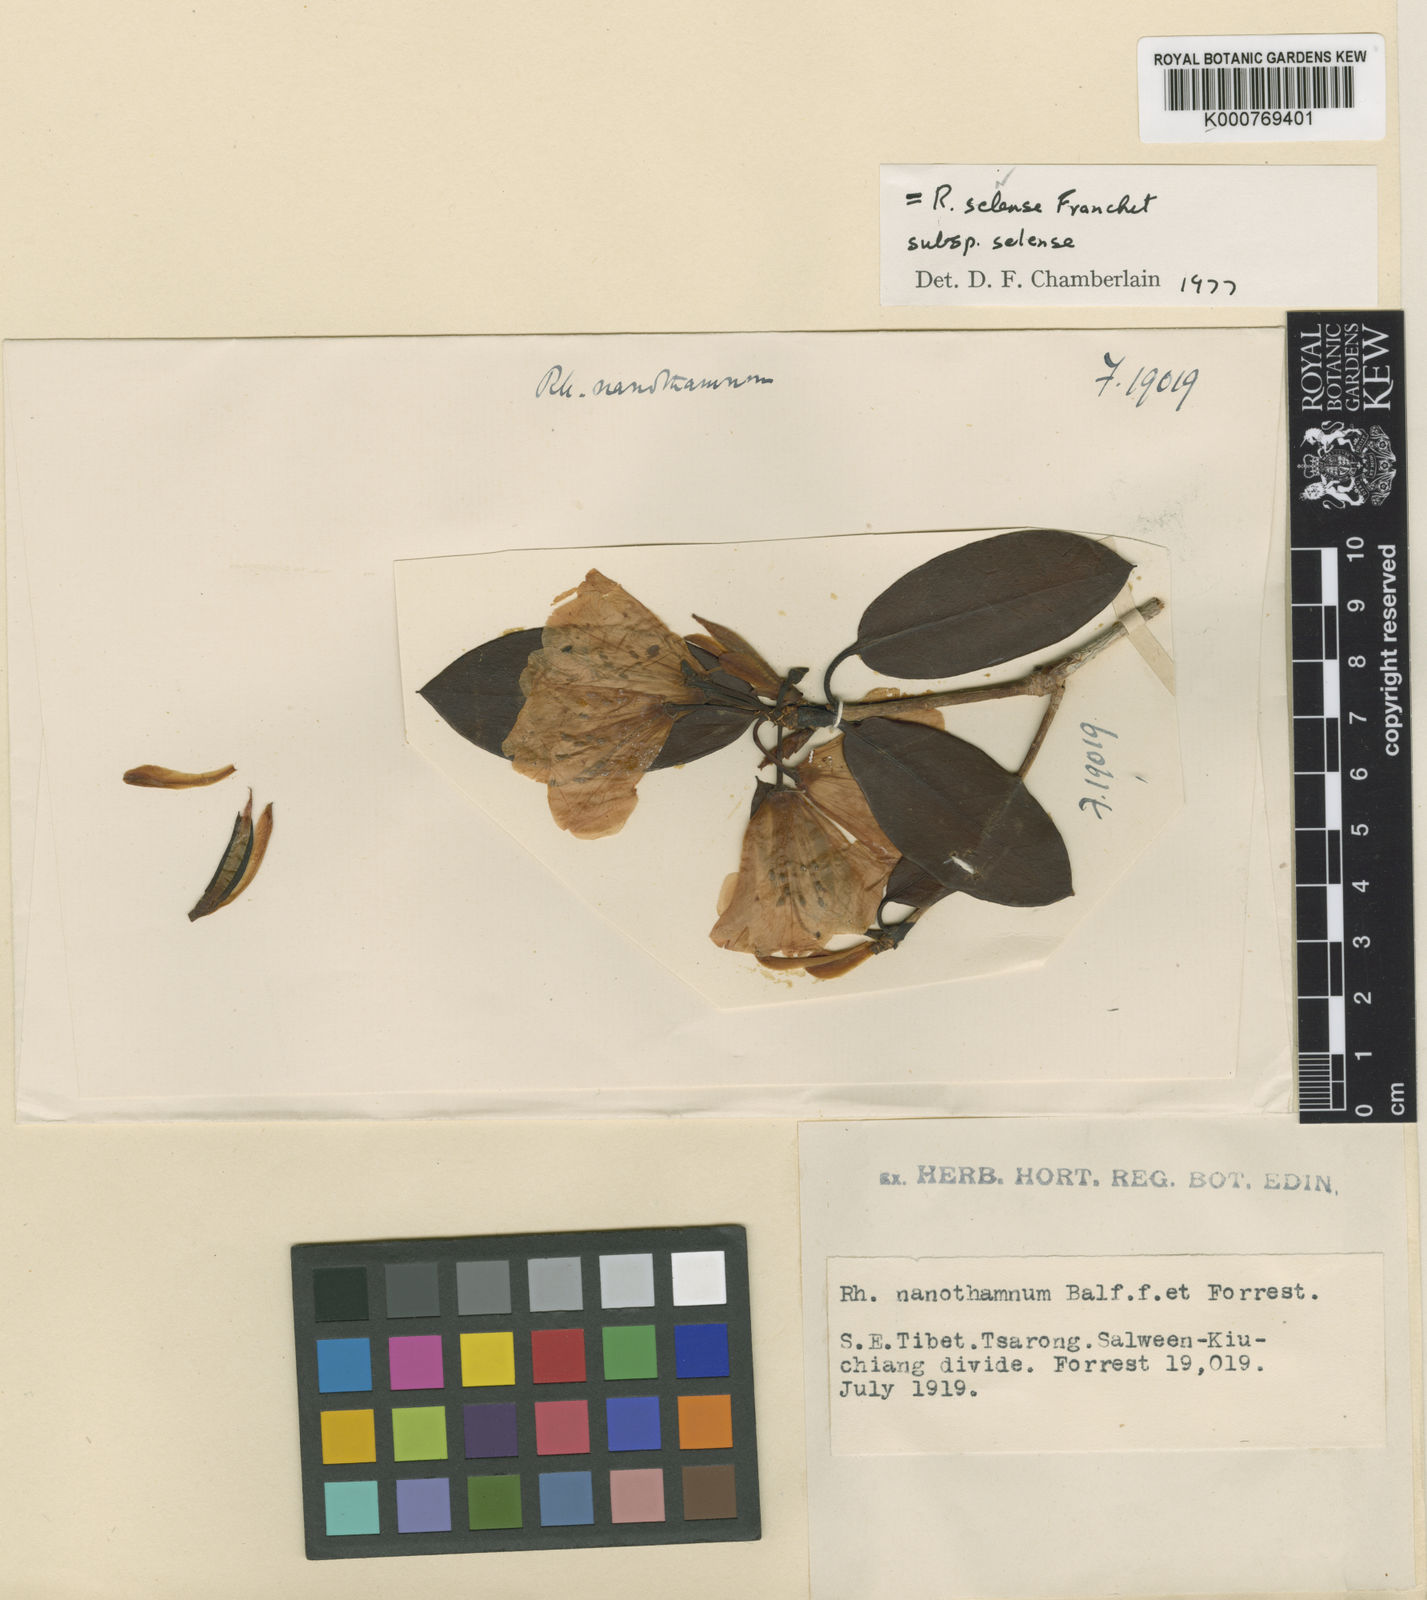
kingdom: Plantae
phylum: Tracheophyta
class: Magnoliopsida
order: Ericales
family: Ericaceae
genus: Rhododendron
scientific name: Rhododendron selense
